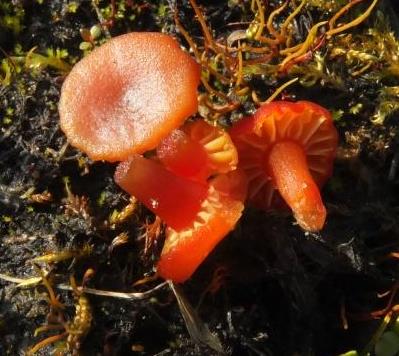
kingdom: Fungi
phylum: Basidiomycota
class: Agaricomycetes
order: Agaricales
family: Hygrophoraceae
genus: Hygrocybe
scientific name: Hygrocybe
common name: vokshat
